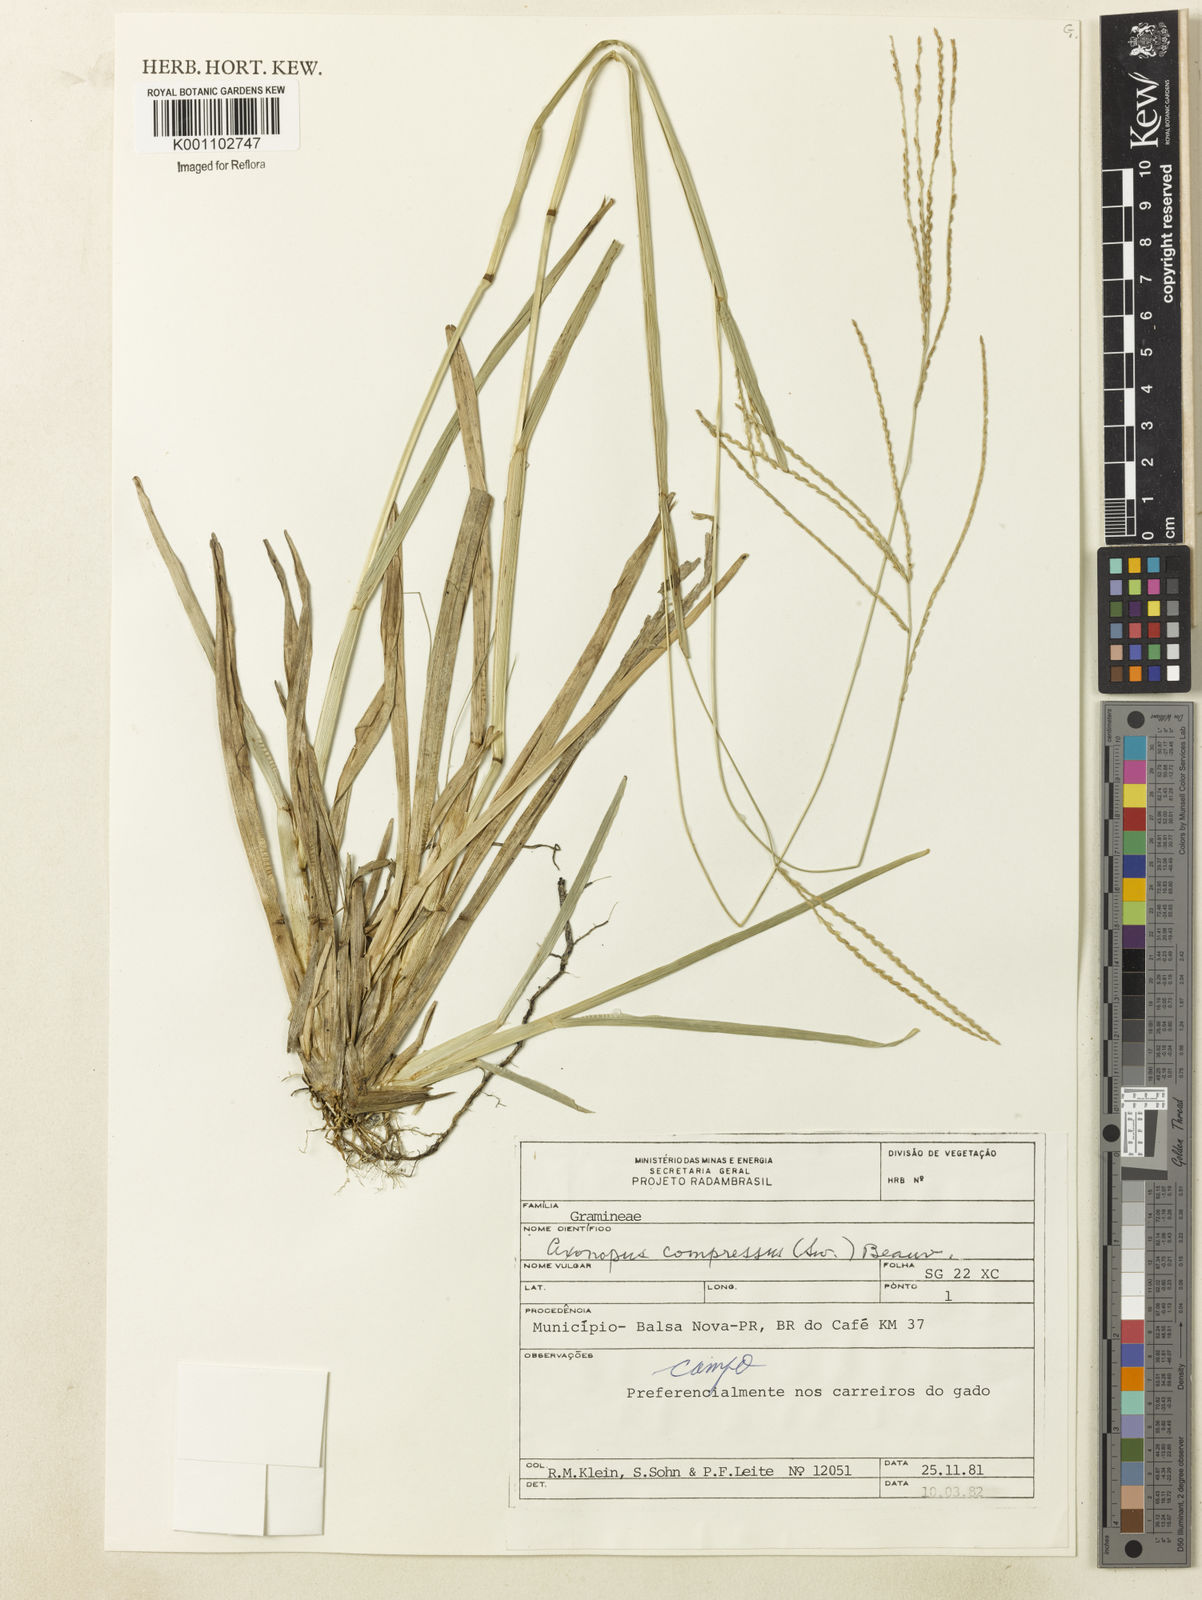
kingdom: Plantae
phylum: Tracheophyta
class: Liliopsida
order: Poales
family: Poaceae
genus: Axonopus
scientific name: Axonopus polystachyus
